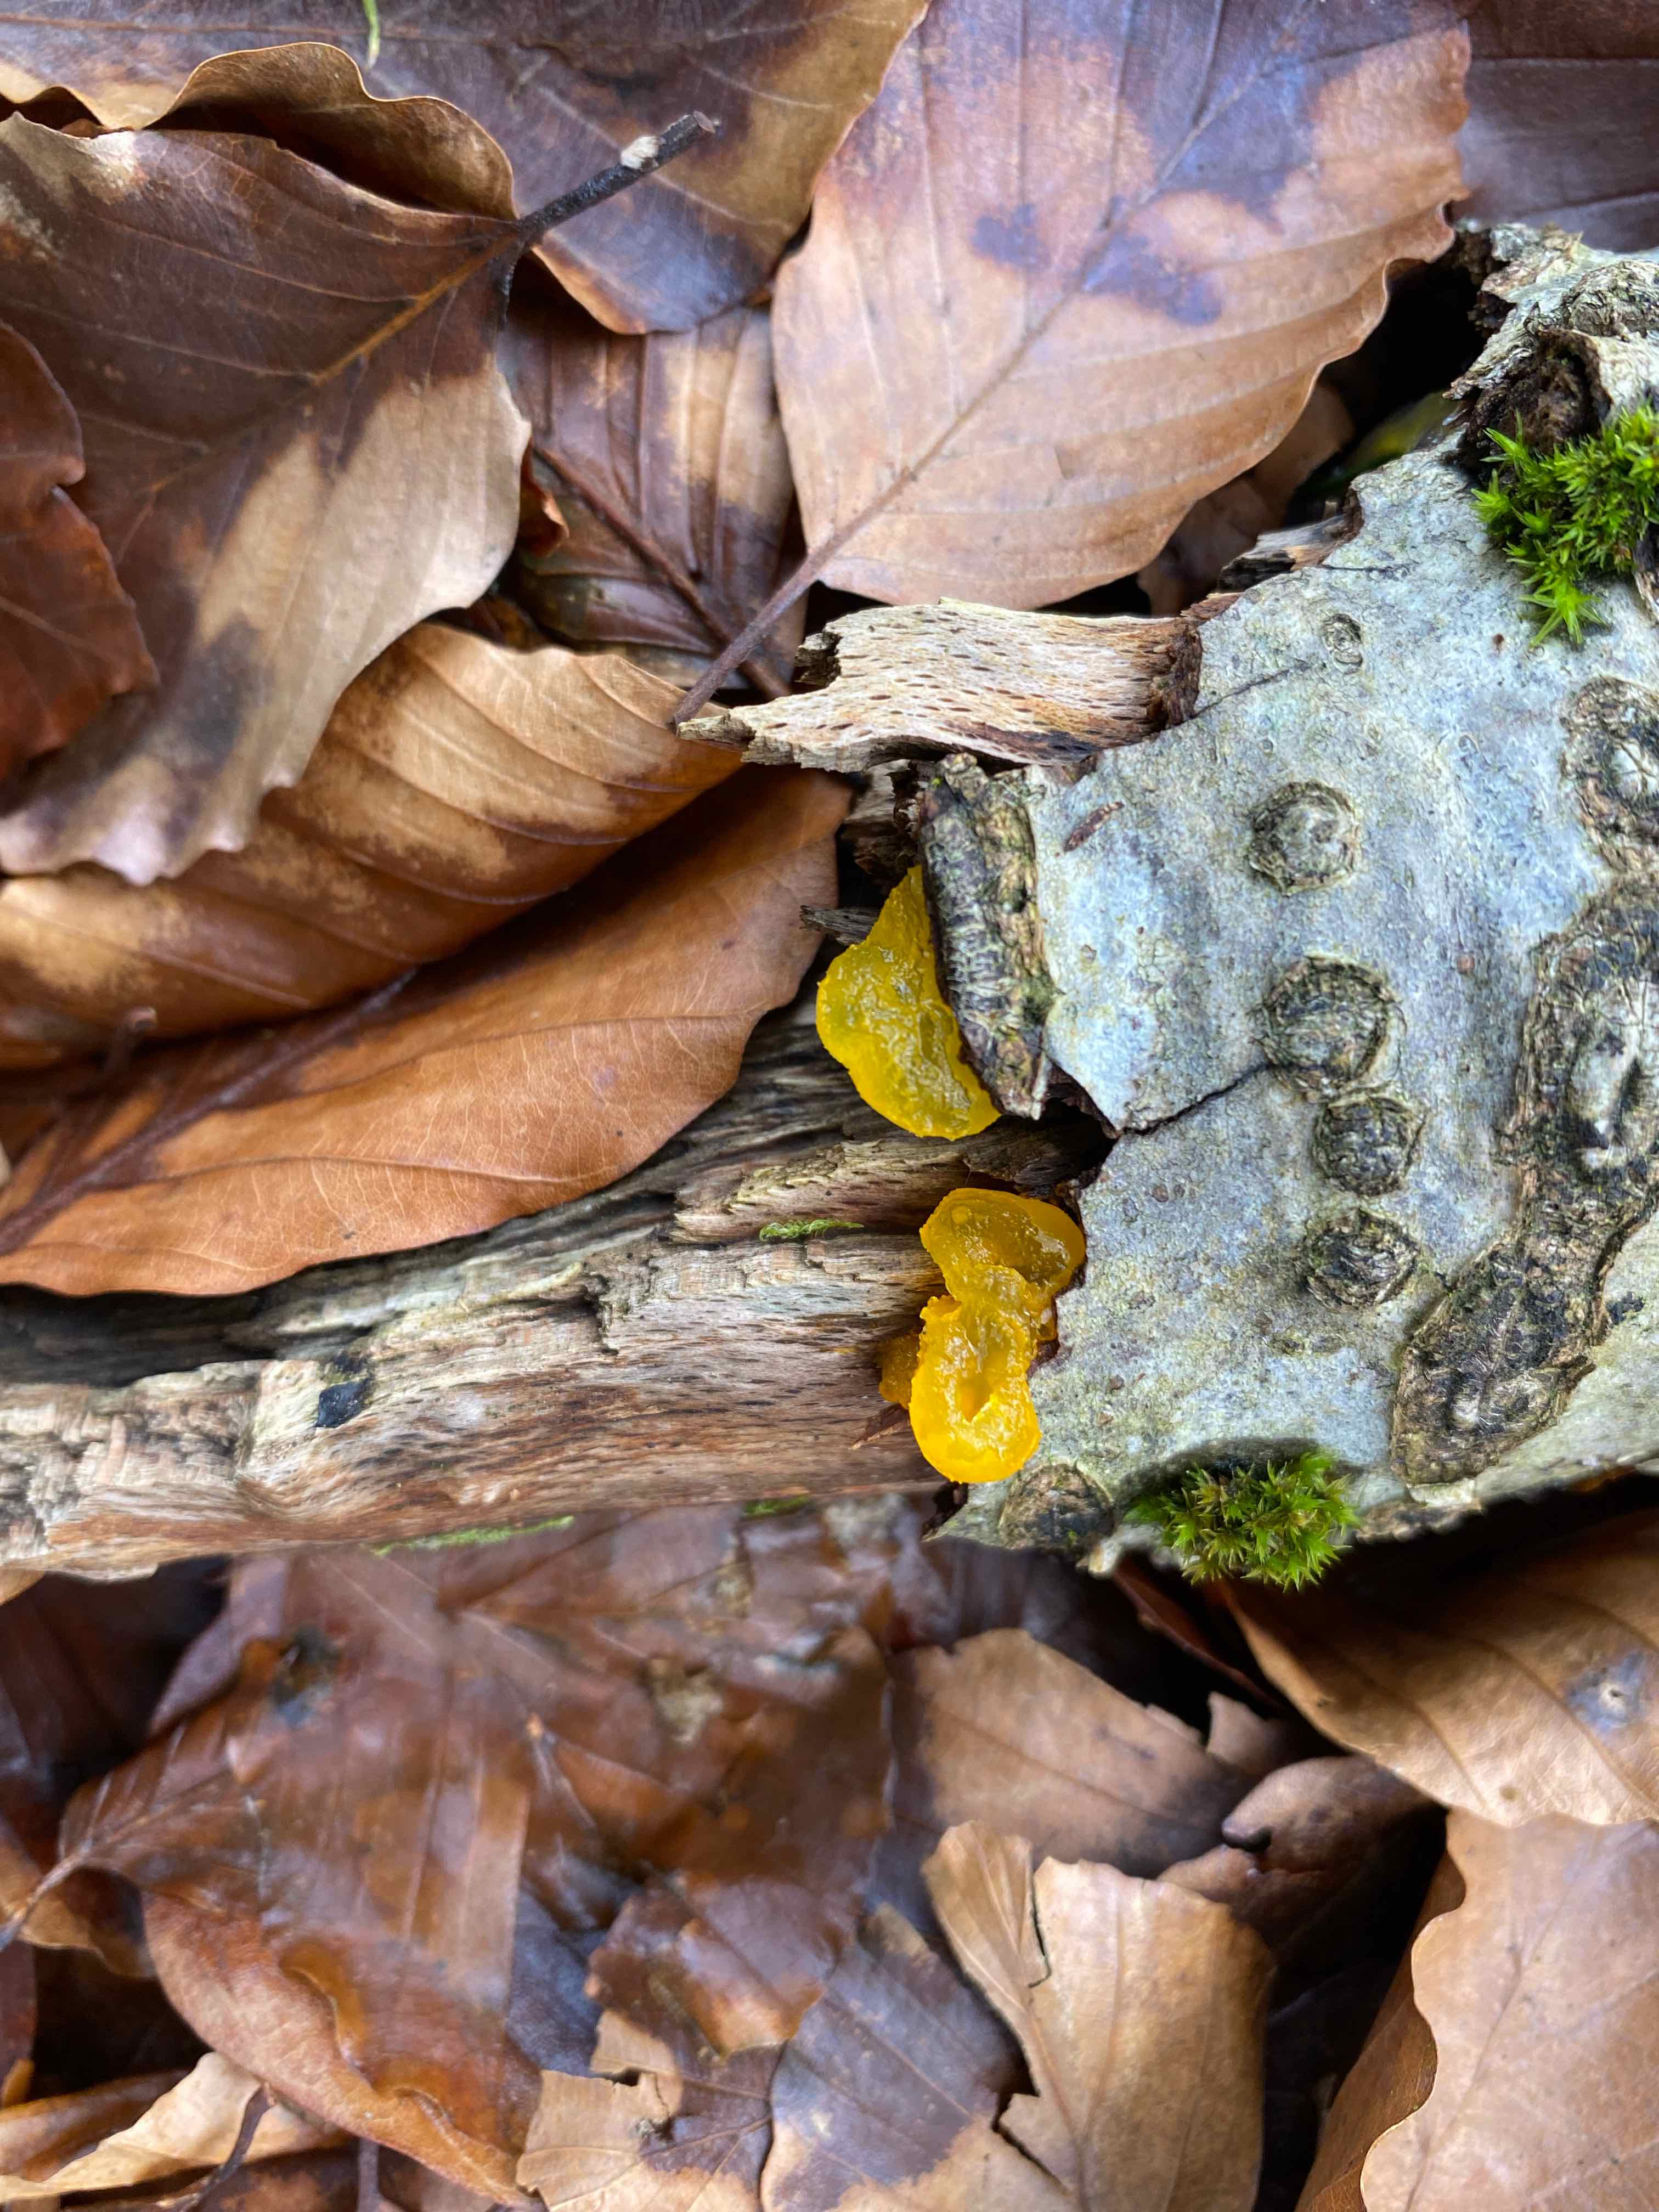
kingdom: Fungi
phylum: Basidiomycota
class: Tremellomycetes
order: Tremellales
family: Tremellaceae
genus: Tremella
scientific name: Tremella mesenterica
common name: gul bævresvamp
